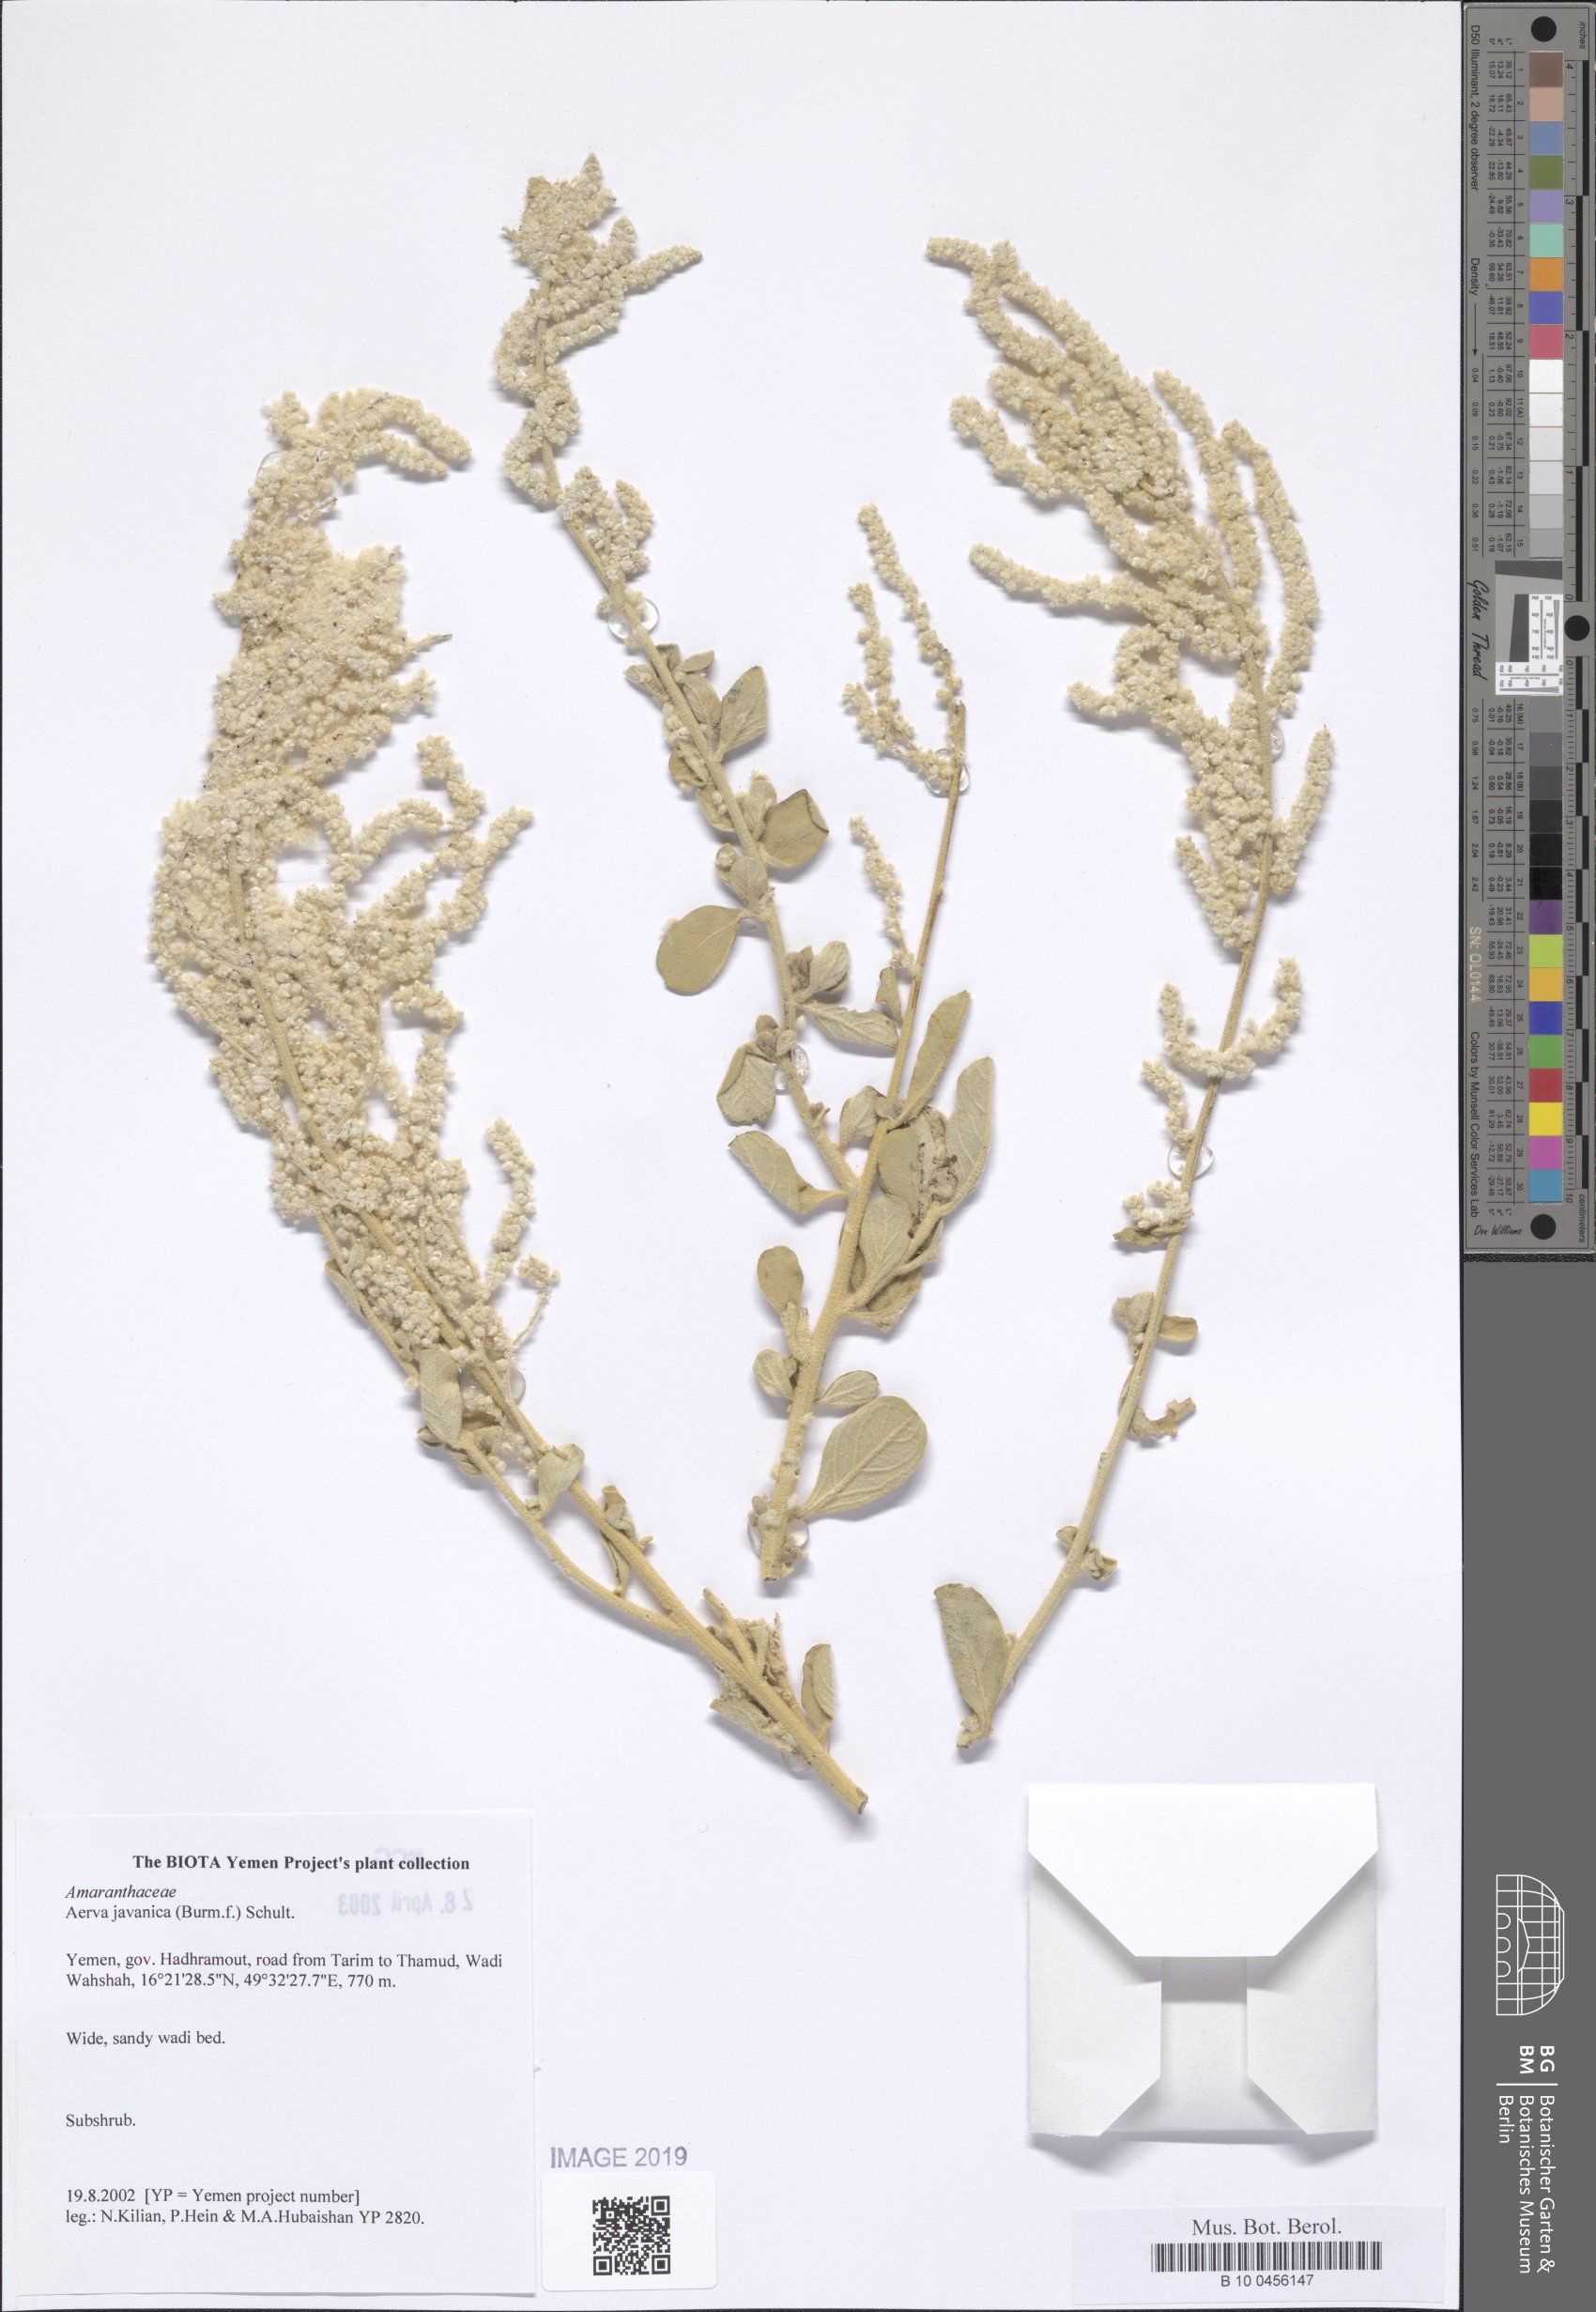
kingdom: Plantae
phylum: Tracheophyta
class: Magnoliopsida
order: Caryophyllales
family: Amaranthaceae
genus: Aerva
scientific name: Aerva javanica
